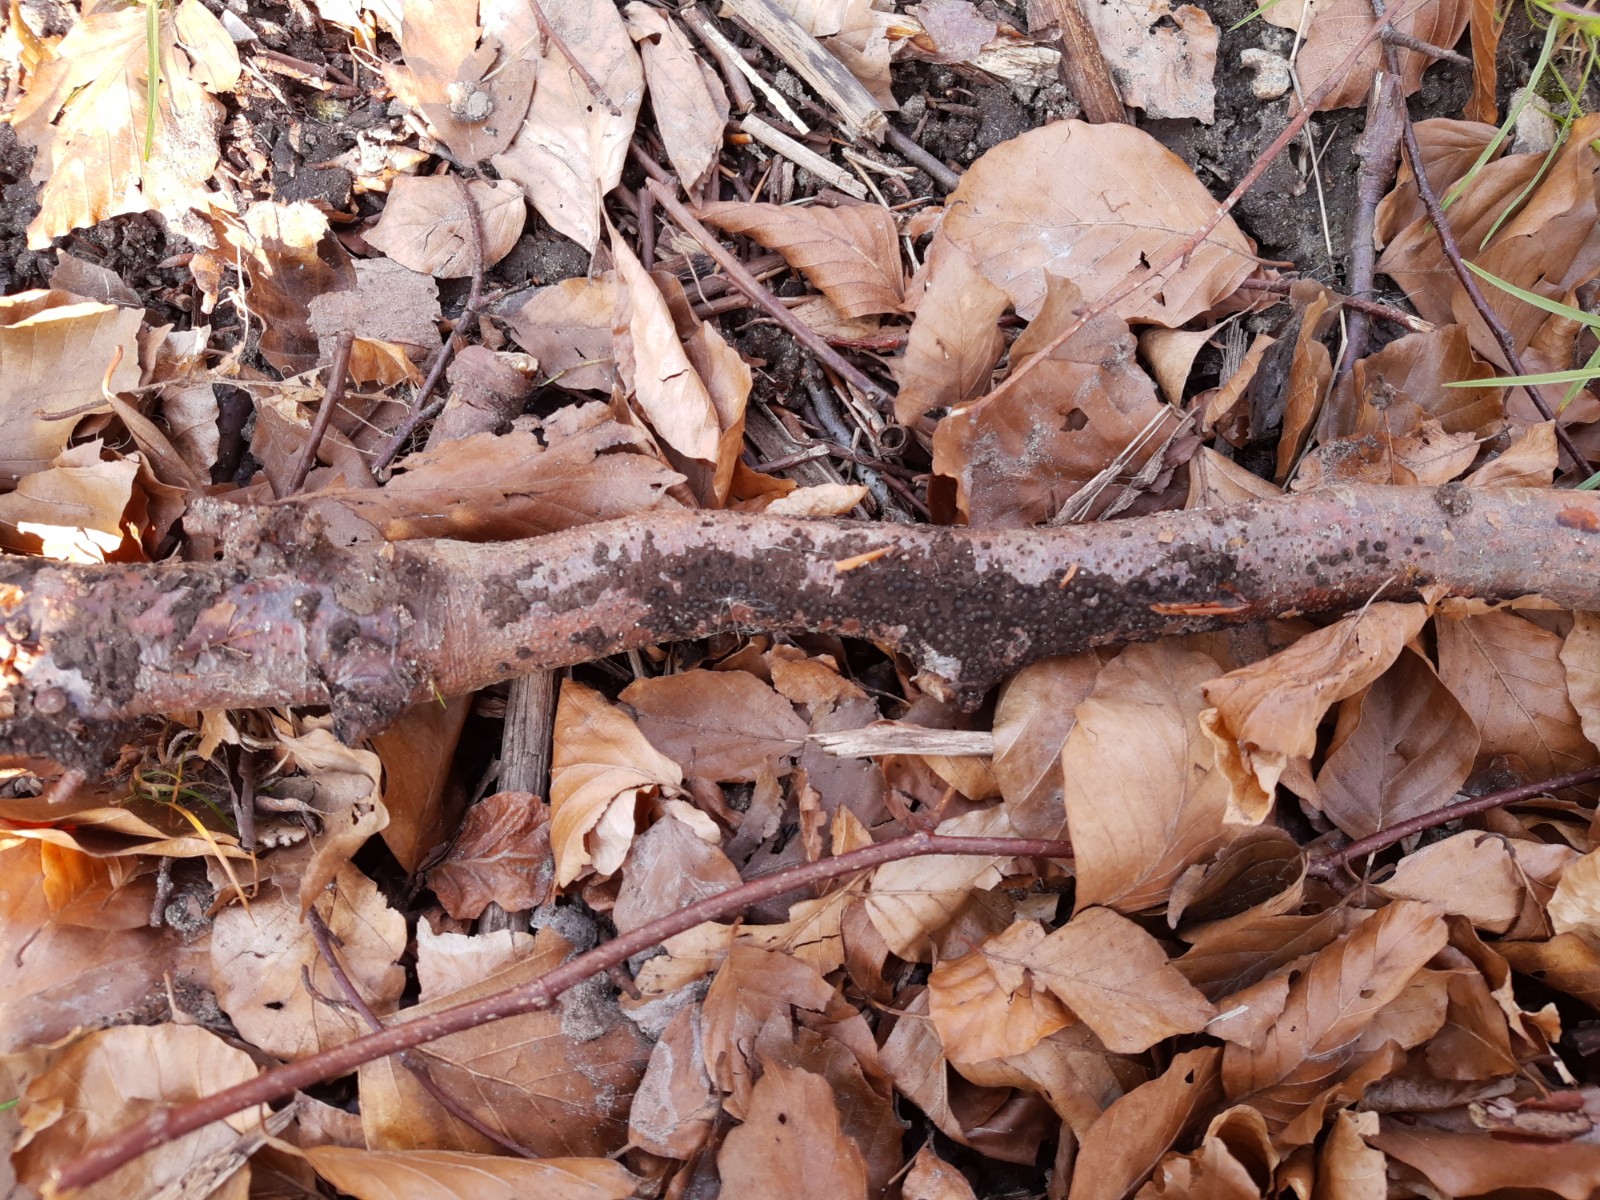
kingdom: Fungi
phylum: Ascomycota
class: Sordariomycetes
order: Xylariales
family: Xylariaceae
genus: Rosellinia
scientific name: Rosellinia
